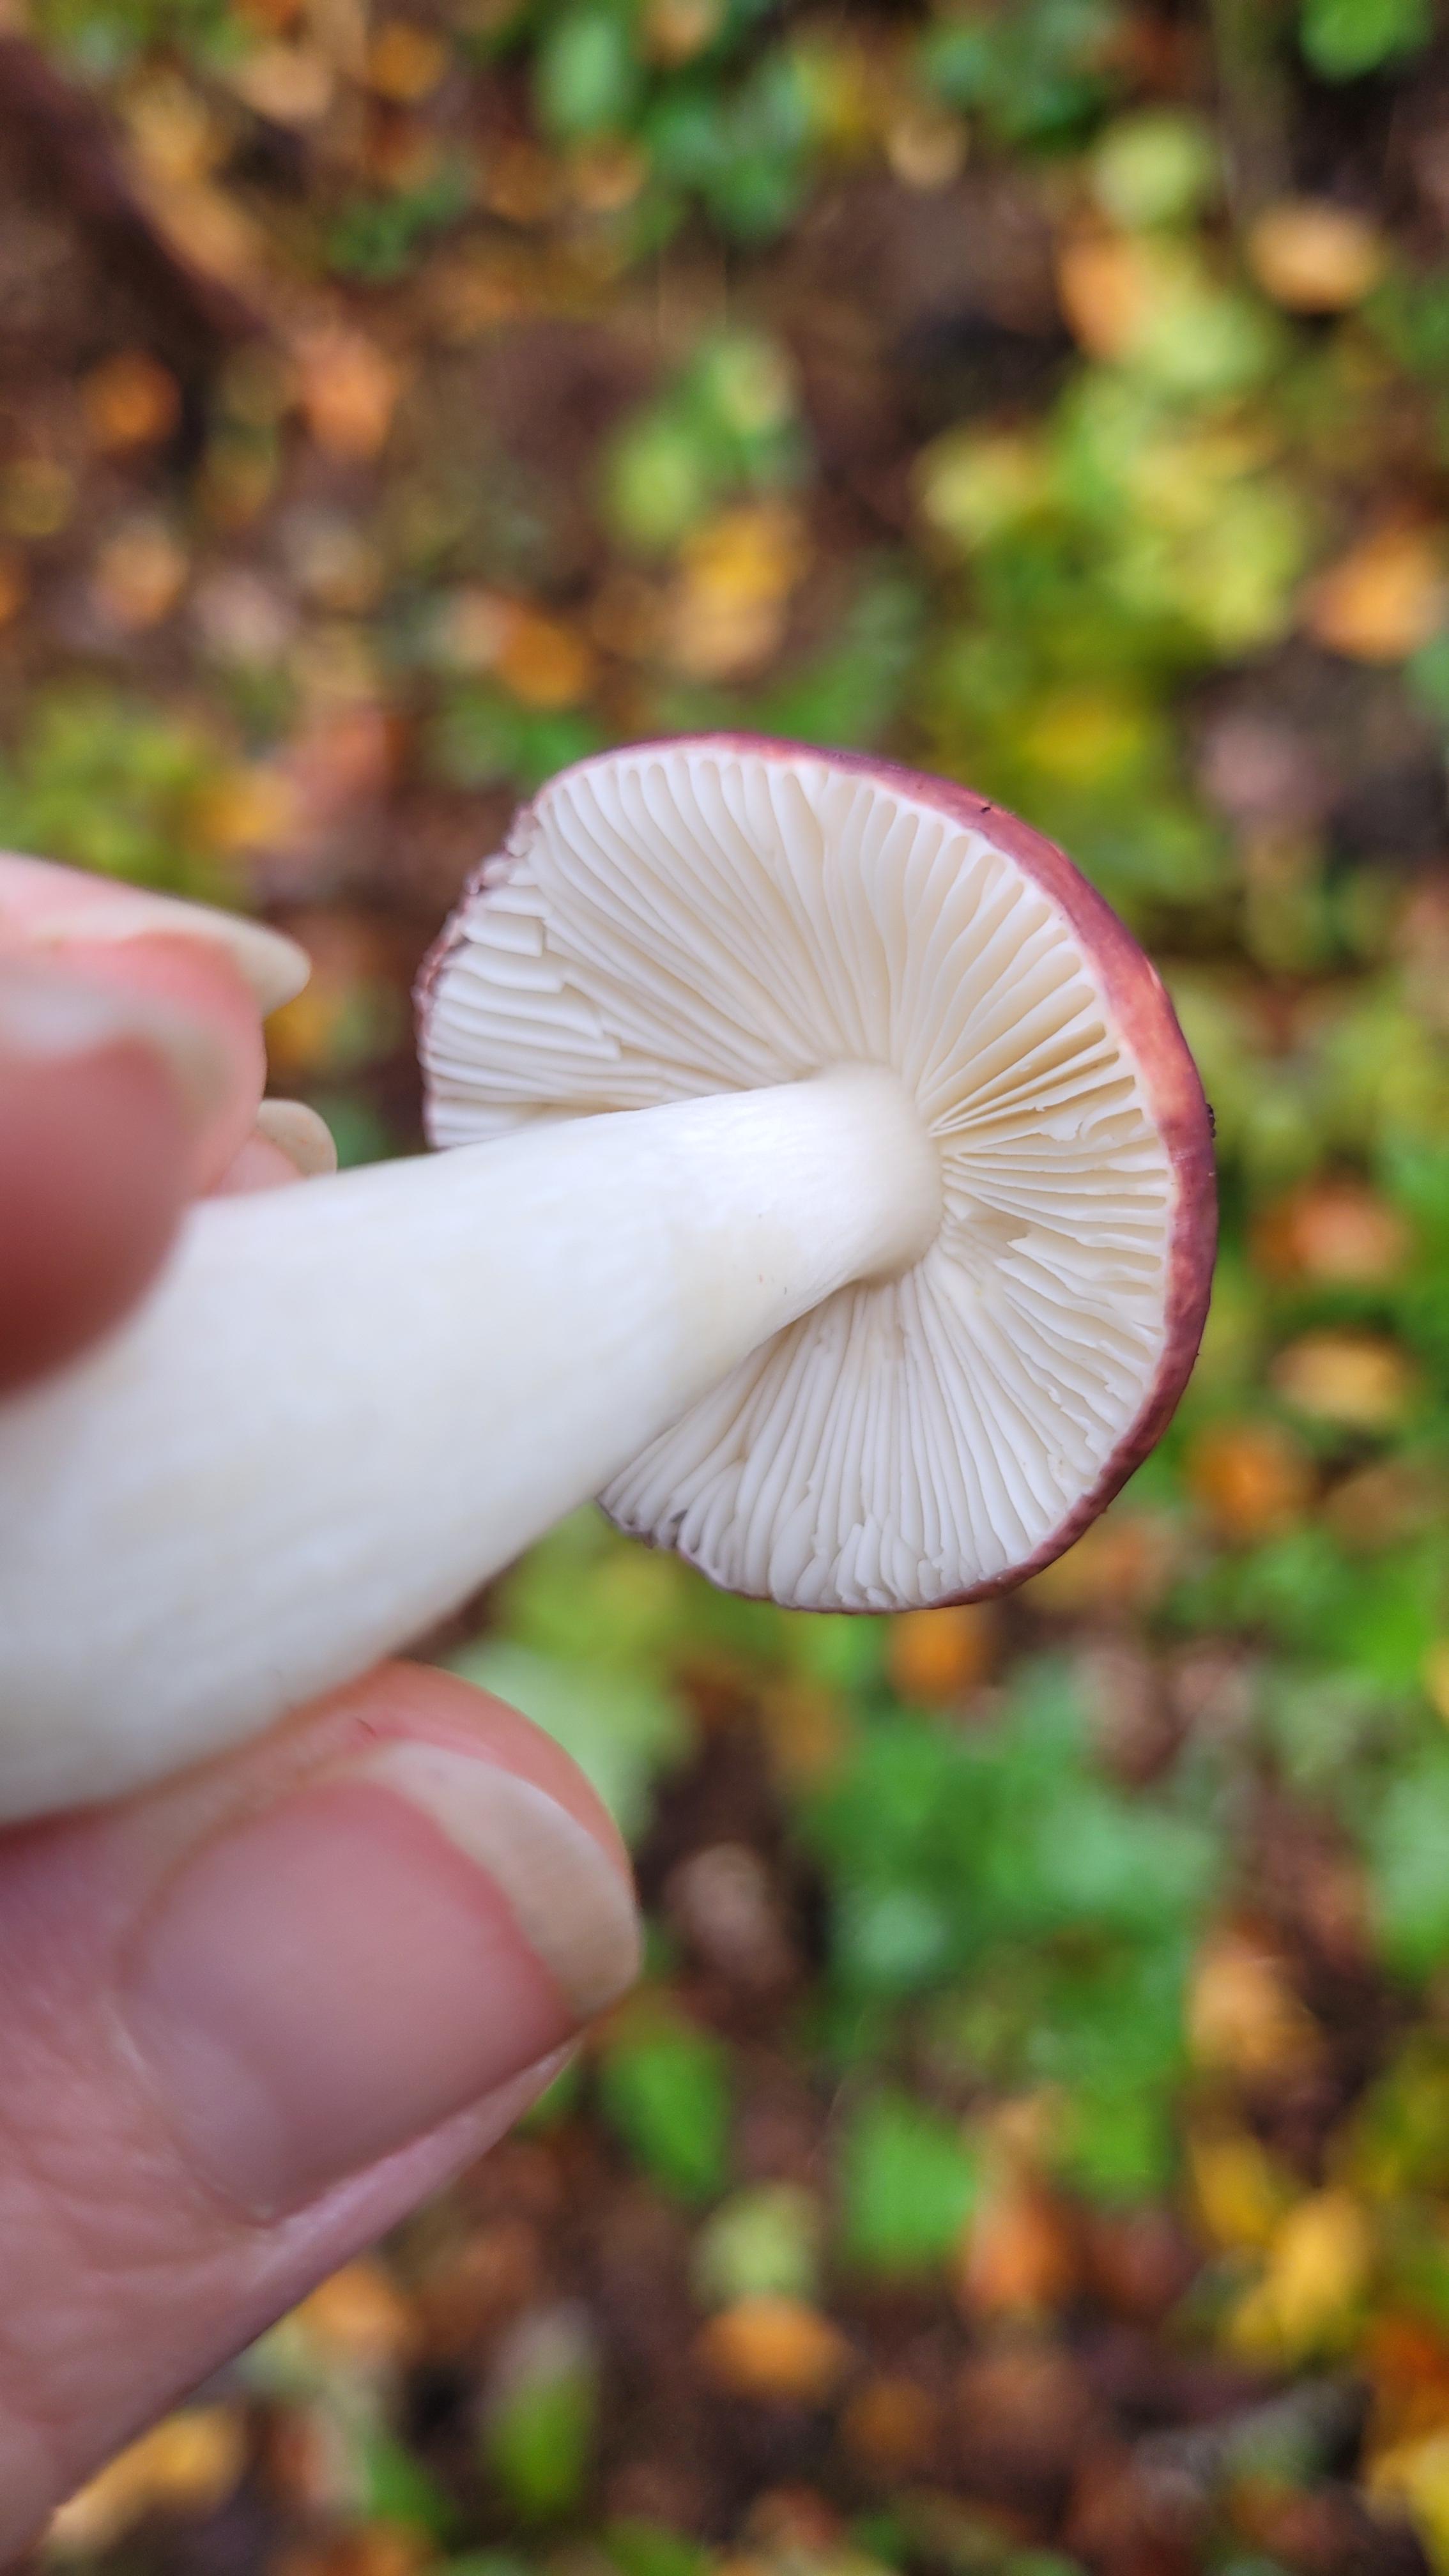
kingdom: Fungi
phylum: Basidiomycota
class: Agaricomycetes
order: Russulales
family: Russulaceae
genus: Russula
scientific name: Russula
